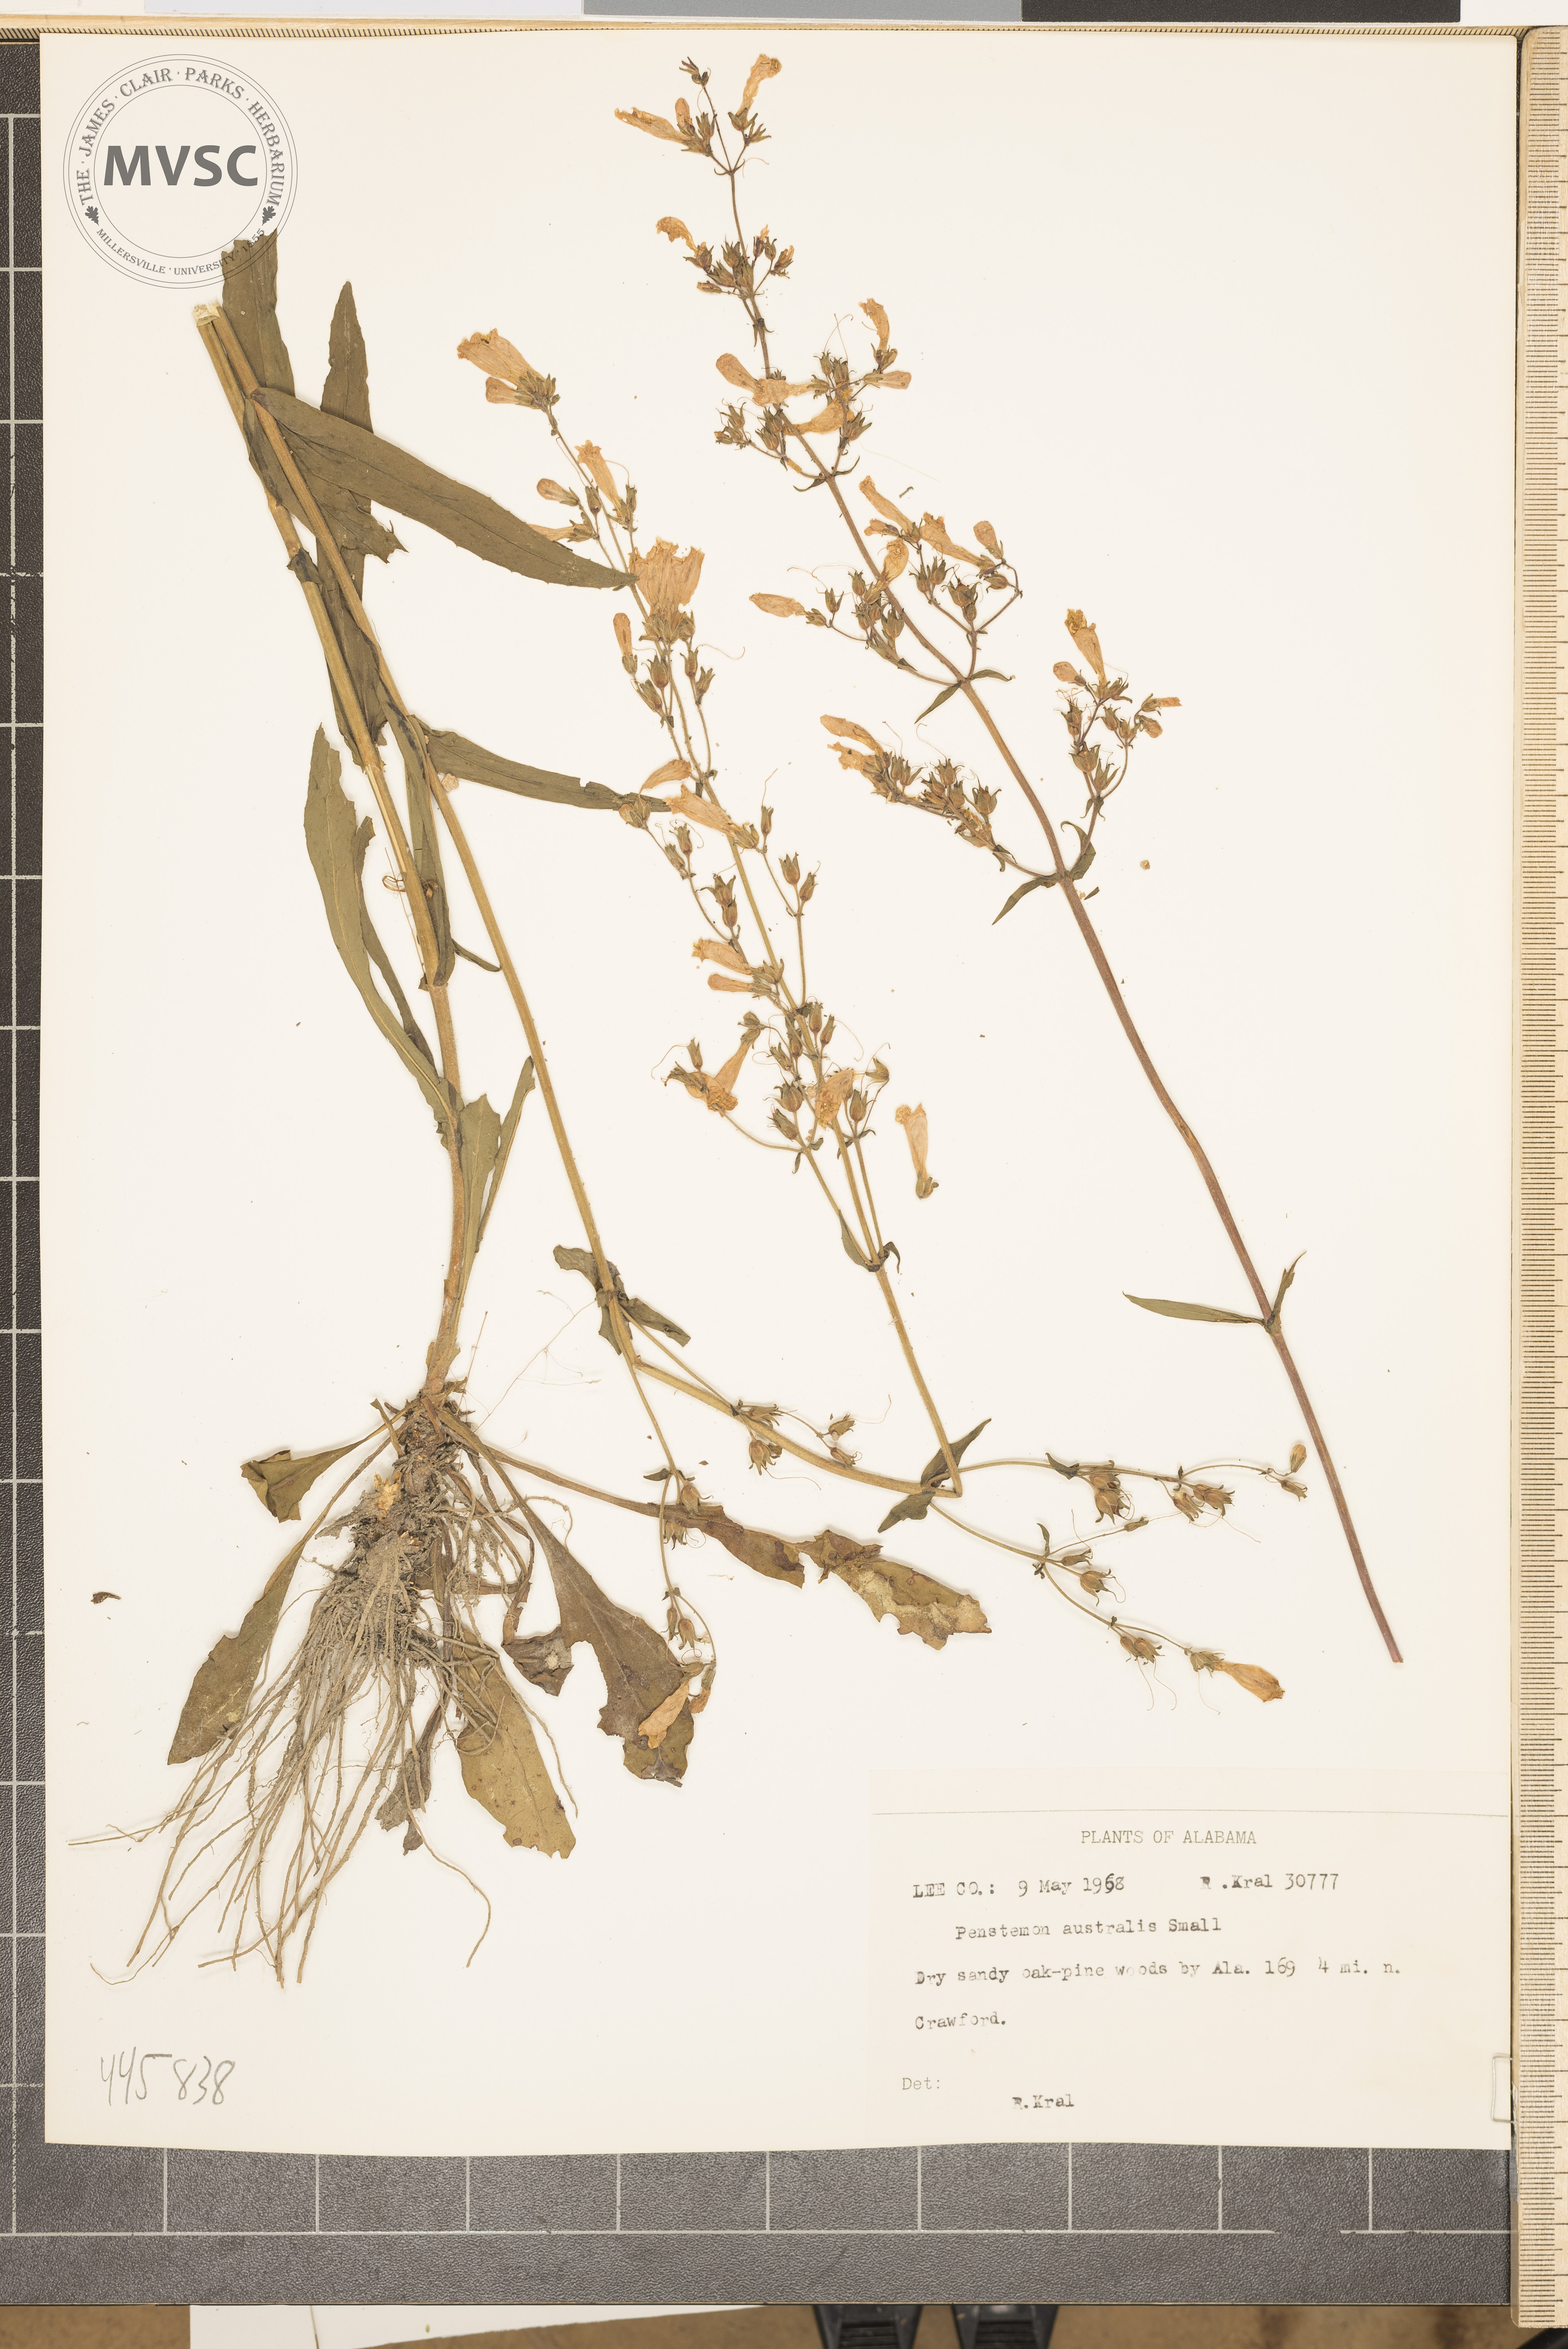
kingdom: Plantae
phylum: Tracheophyta
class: Magnoliopsida
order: Lamiales
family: Plantaginaceae
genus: Penstemon
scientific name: Penstemon australis
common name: Southeastern beardtongue
